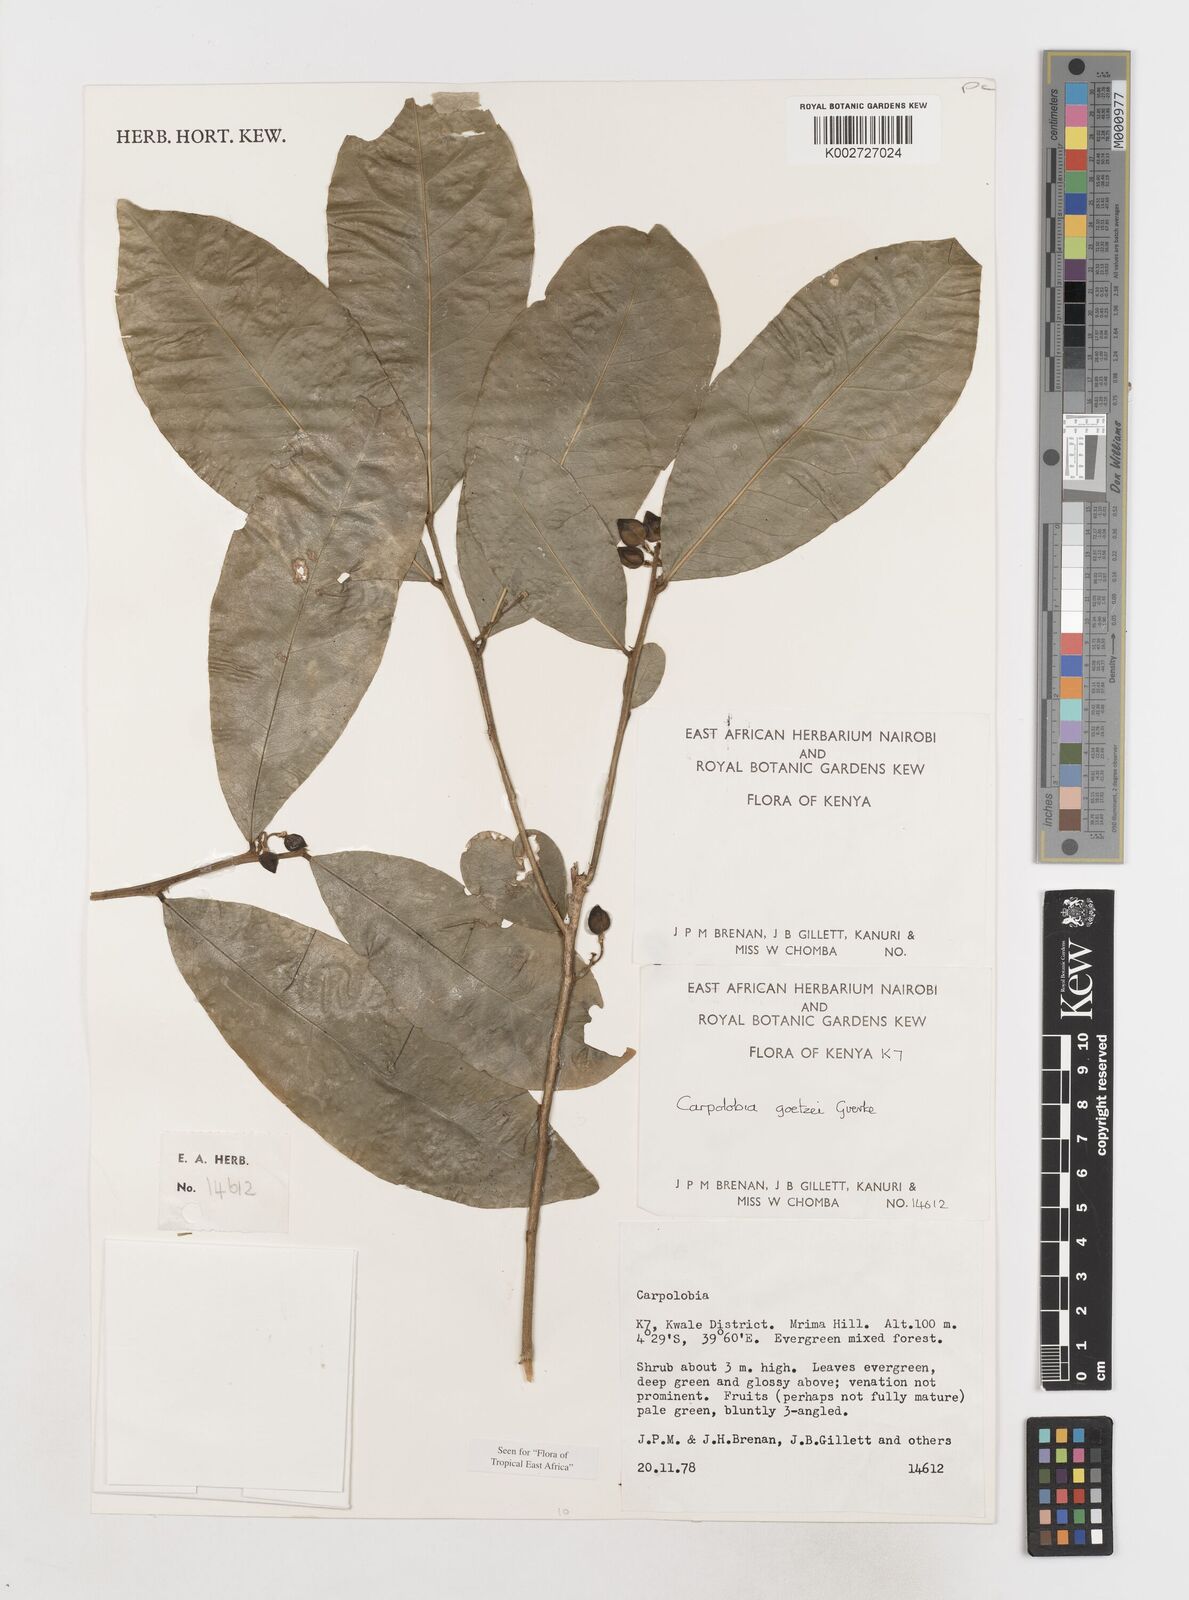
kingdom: Plantae
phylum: Tracheophyta
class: Magnoliopsida
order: Fabales
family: Polygalaceae
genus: Carpolobia
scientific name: Carpolobia goetzei
